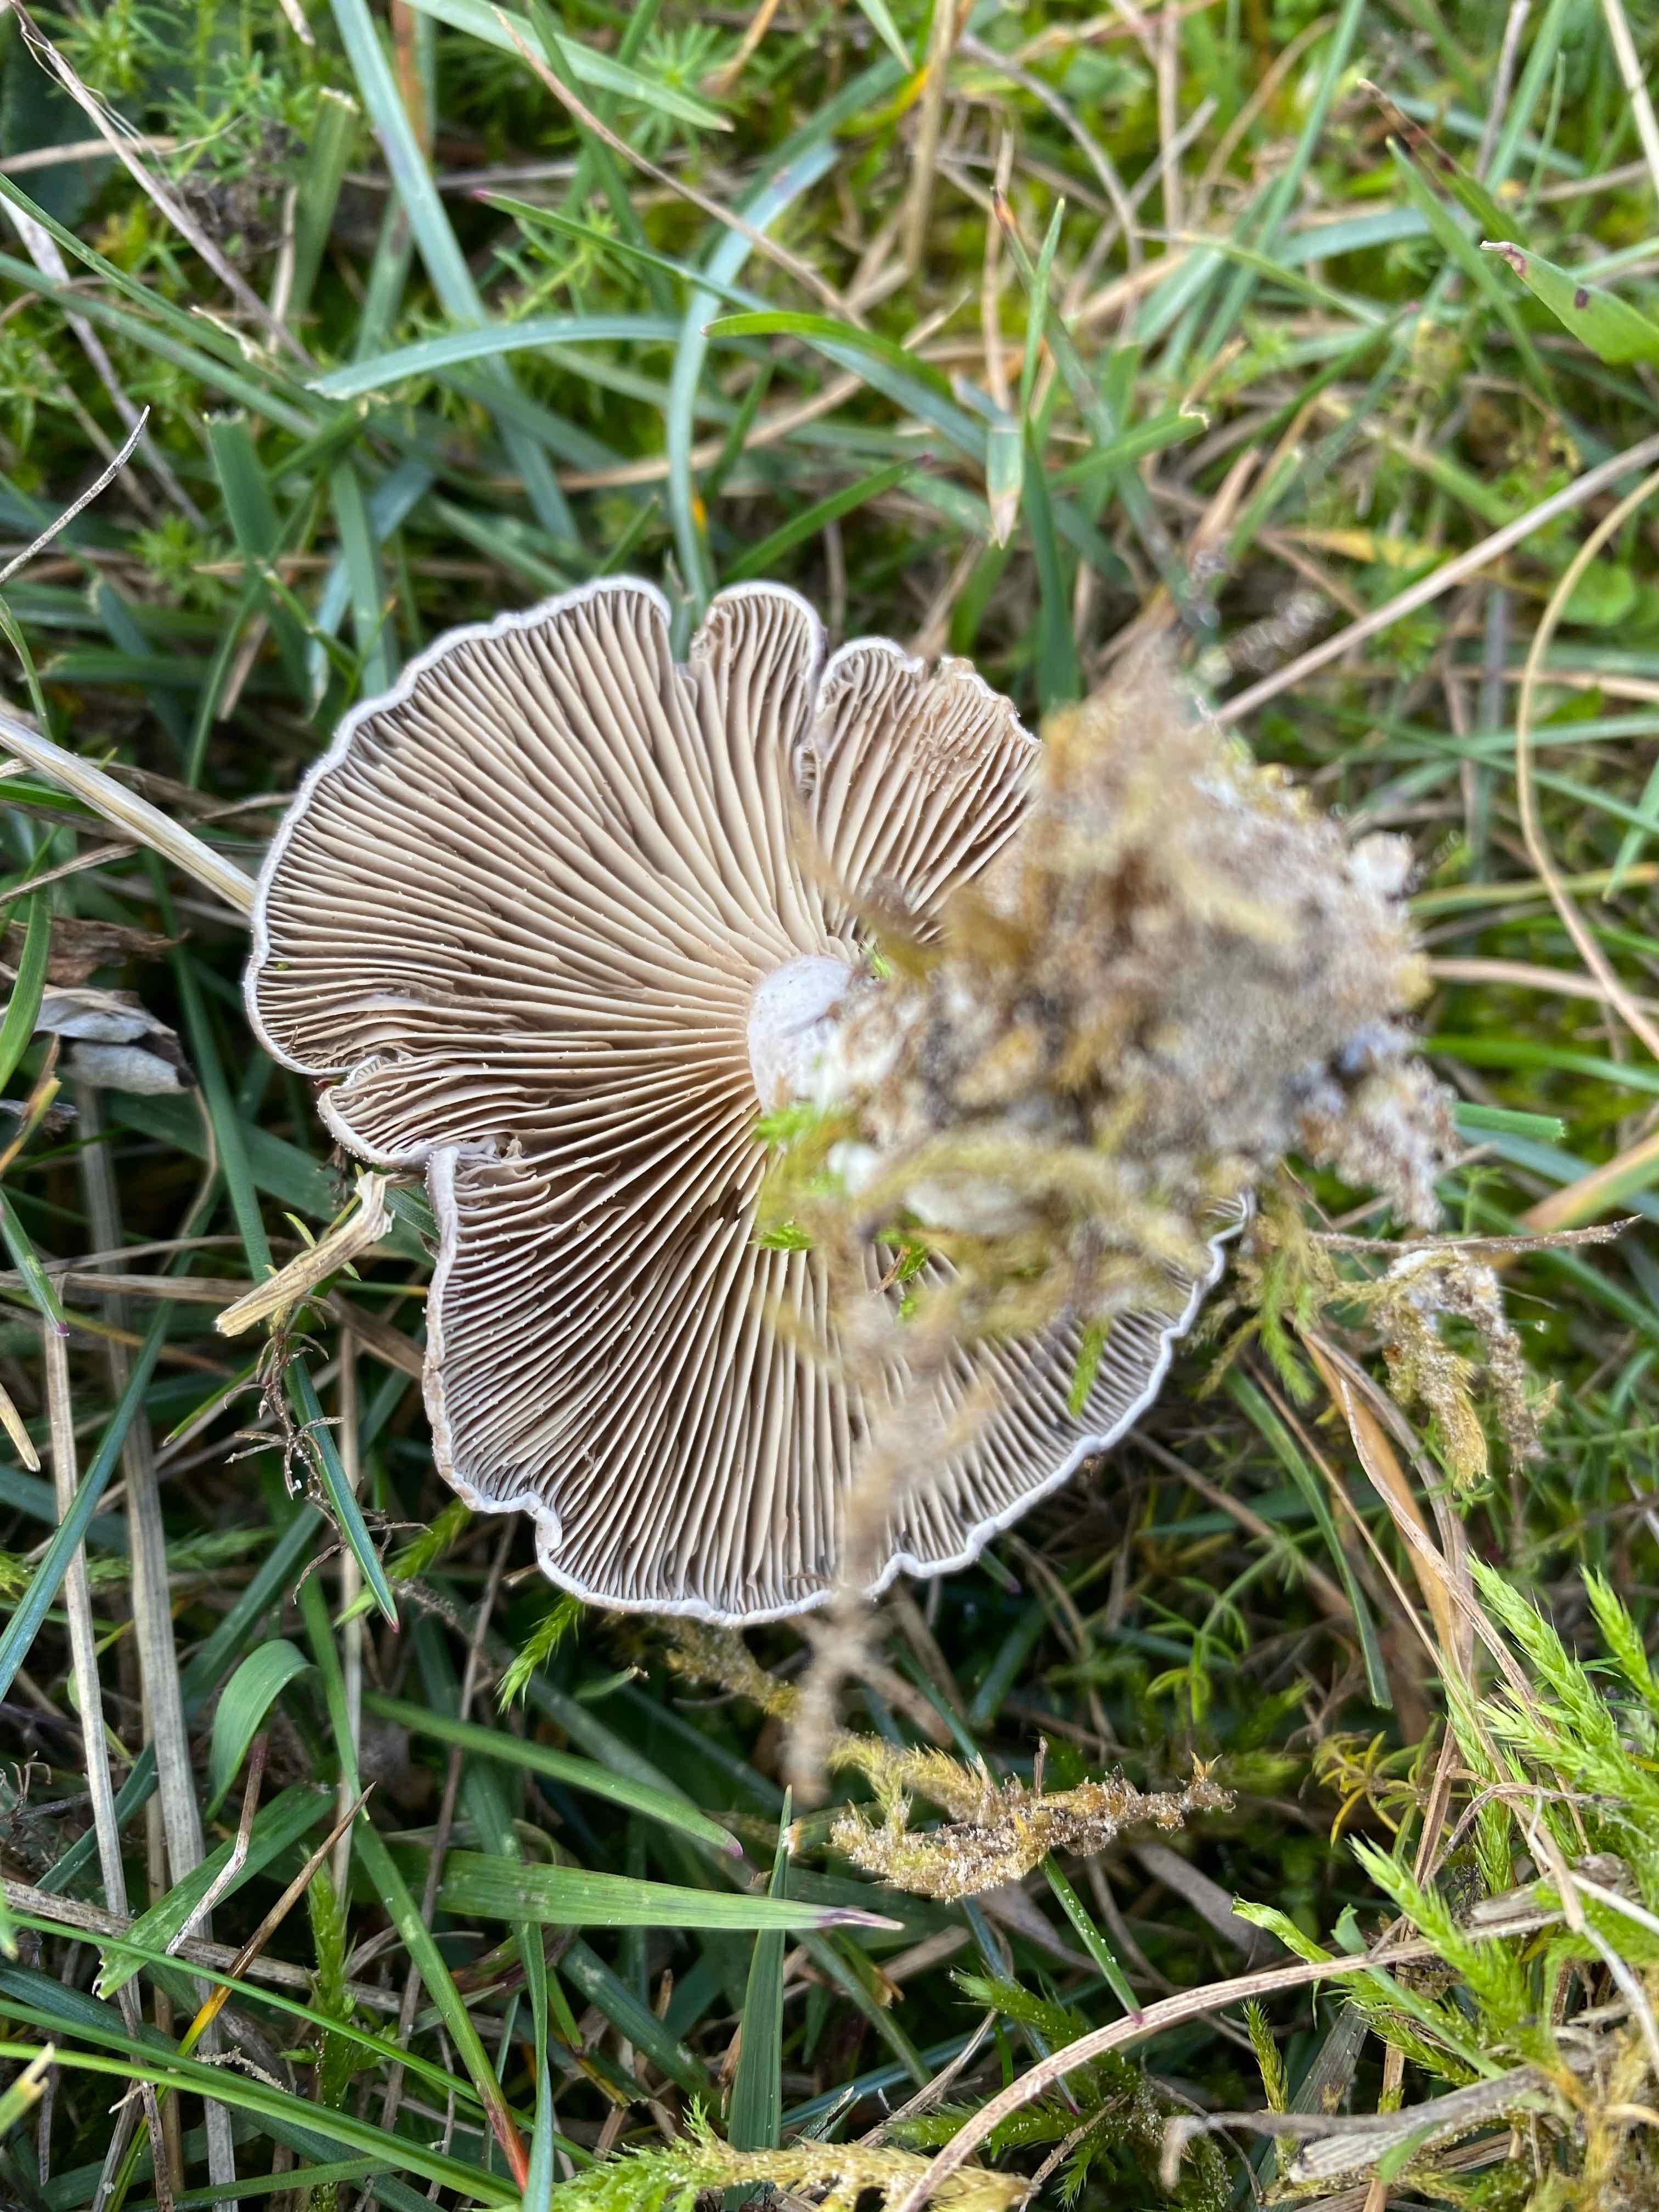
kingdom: Fungi
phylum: Basidiomycota
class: Agaricomycetes
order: Agaricales
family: Tricholomataceae
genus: Lulesia
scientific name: Lulesia
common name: sortnende troldhat
